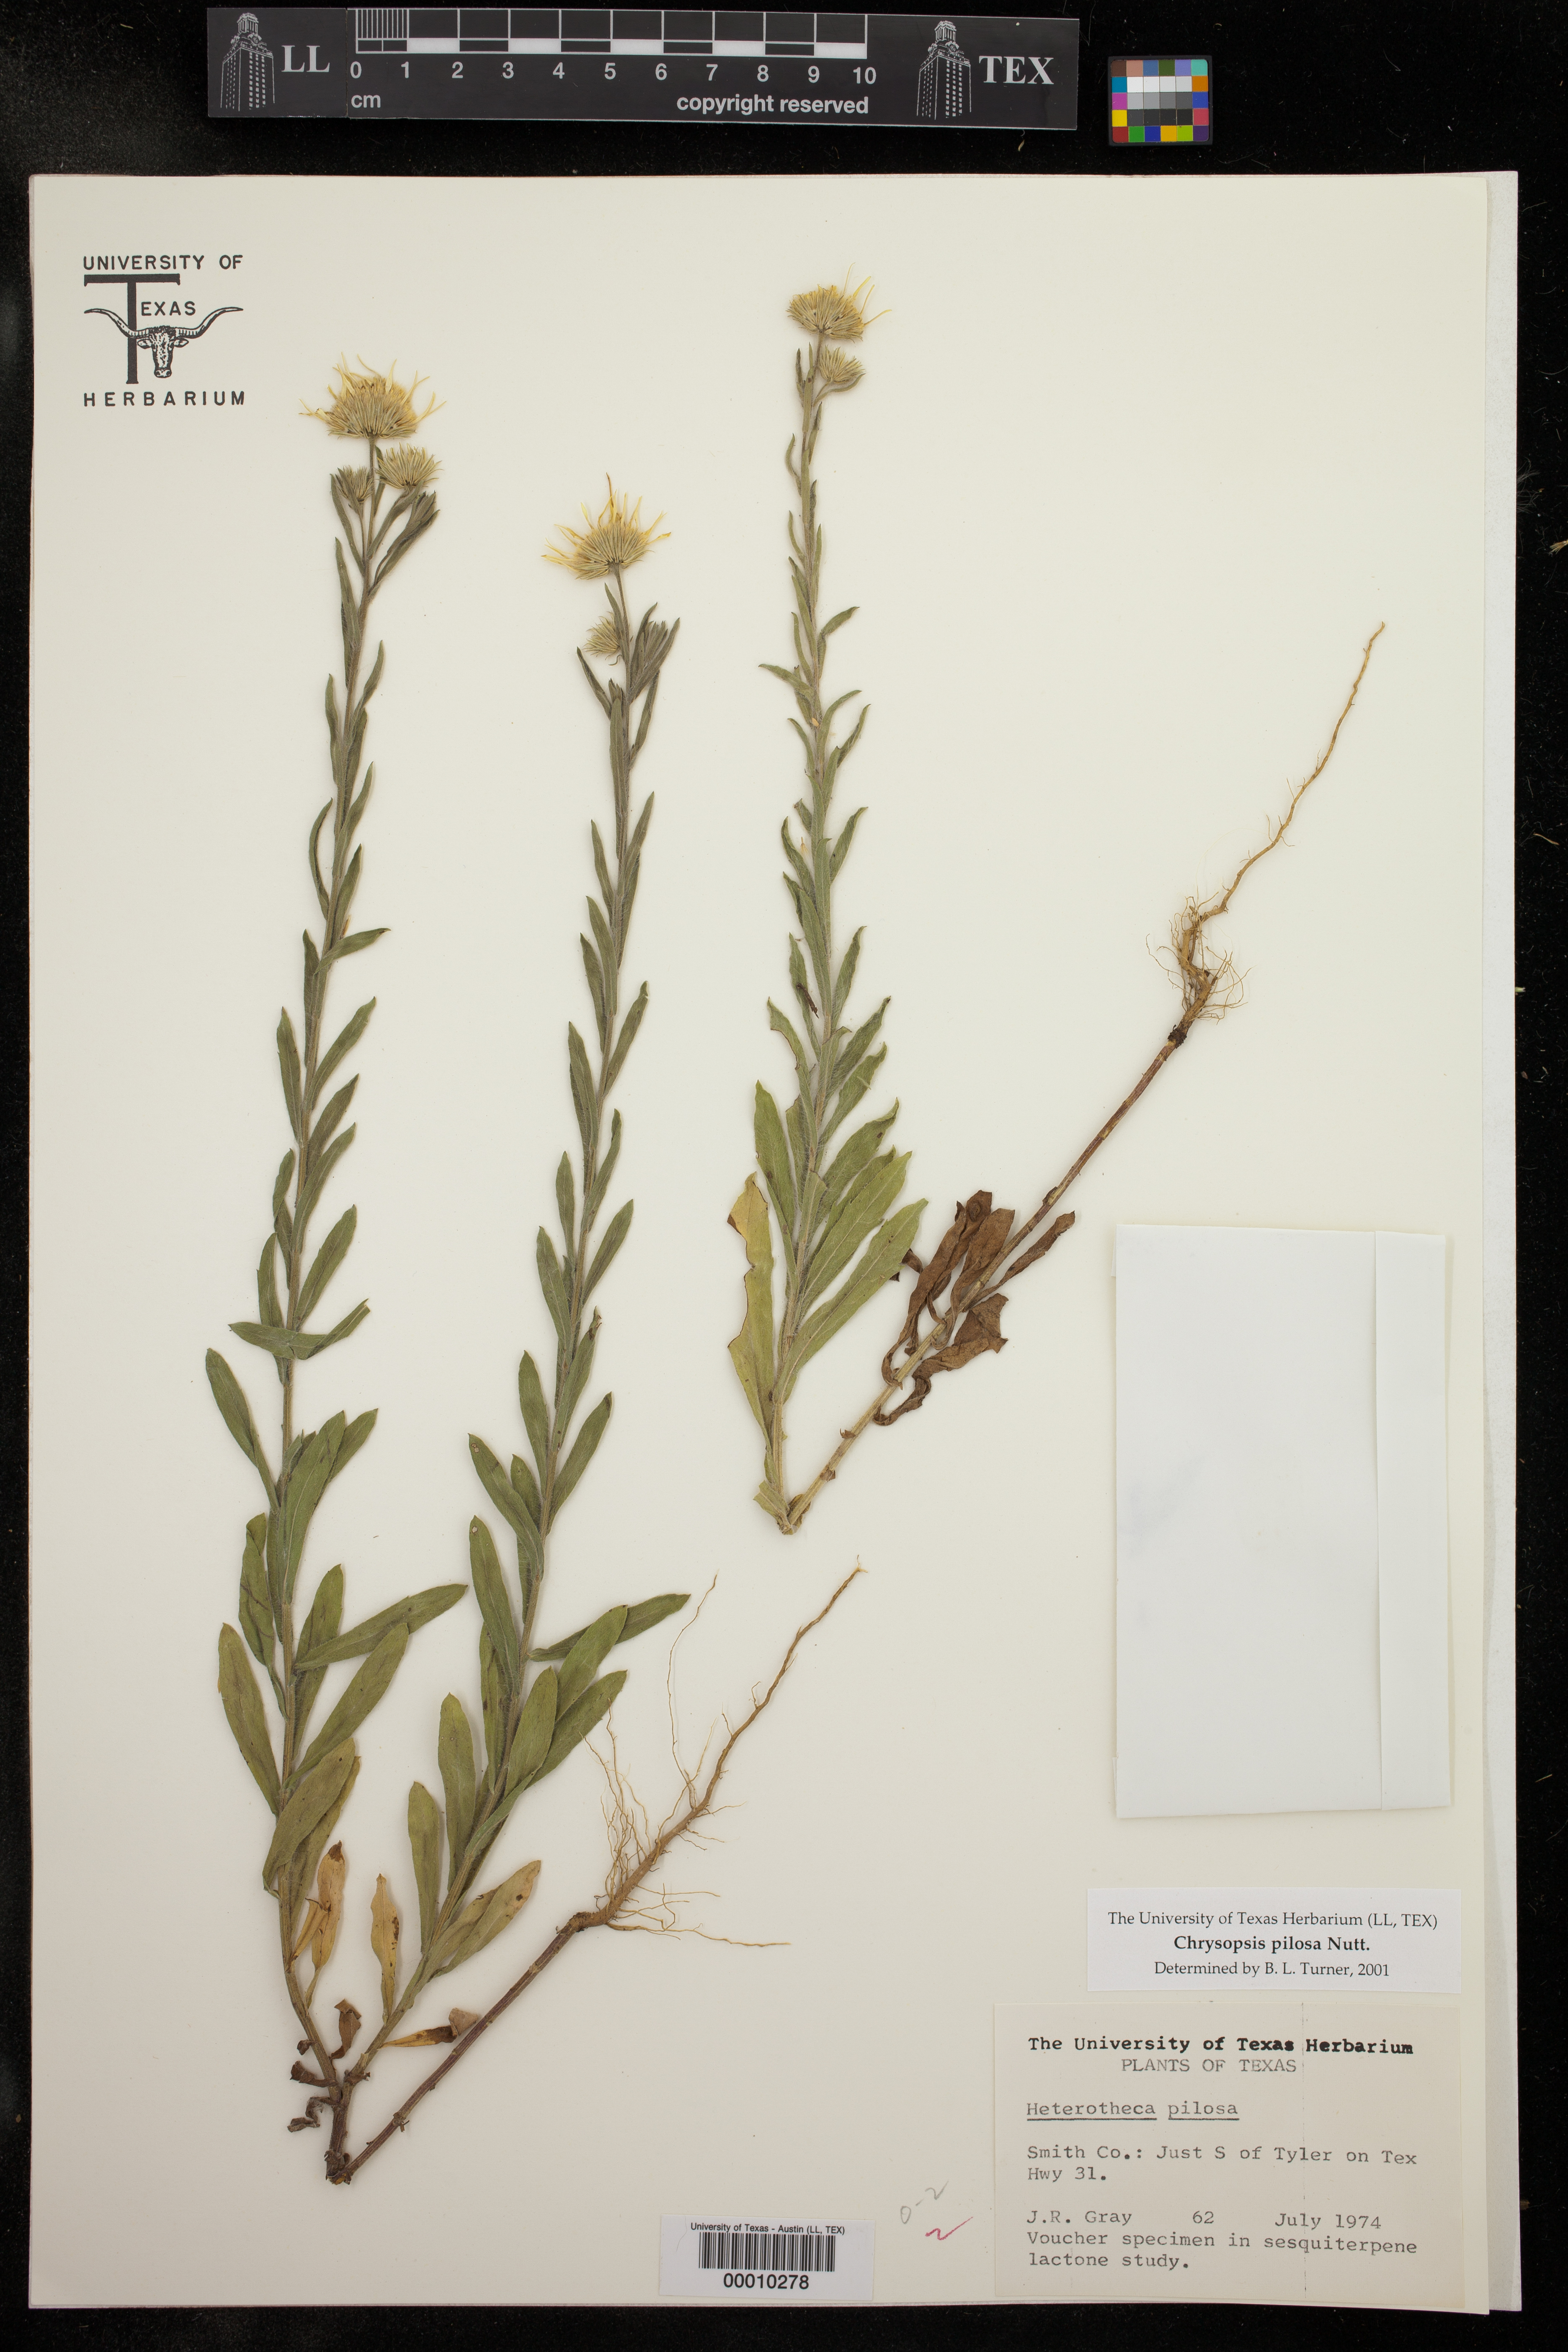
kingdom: Plantae
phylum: Tracheophyta
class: Magnoliopsida
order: Asterales
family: Asteraceae
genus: Chrysopsis
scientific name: Chrysopsis gossypina
